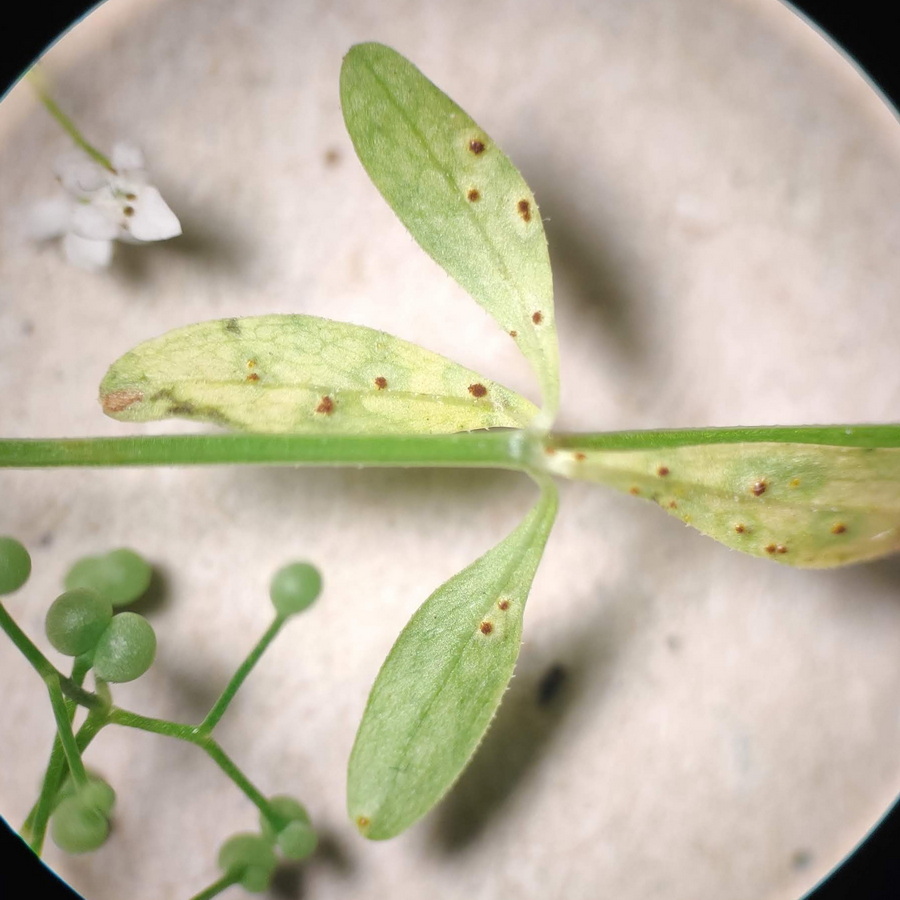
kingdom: Fungi
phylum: Basidiomycota
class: Pucciniomycetes
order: Pucciniales
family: Pucciniastraceae
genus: Pucciniastrum
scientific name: Pucciniastrum guttatum
